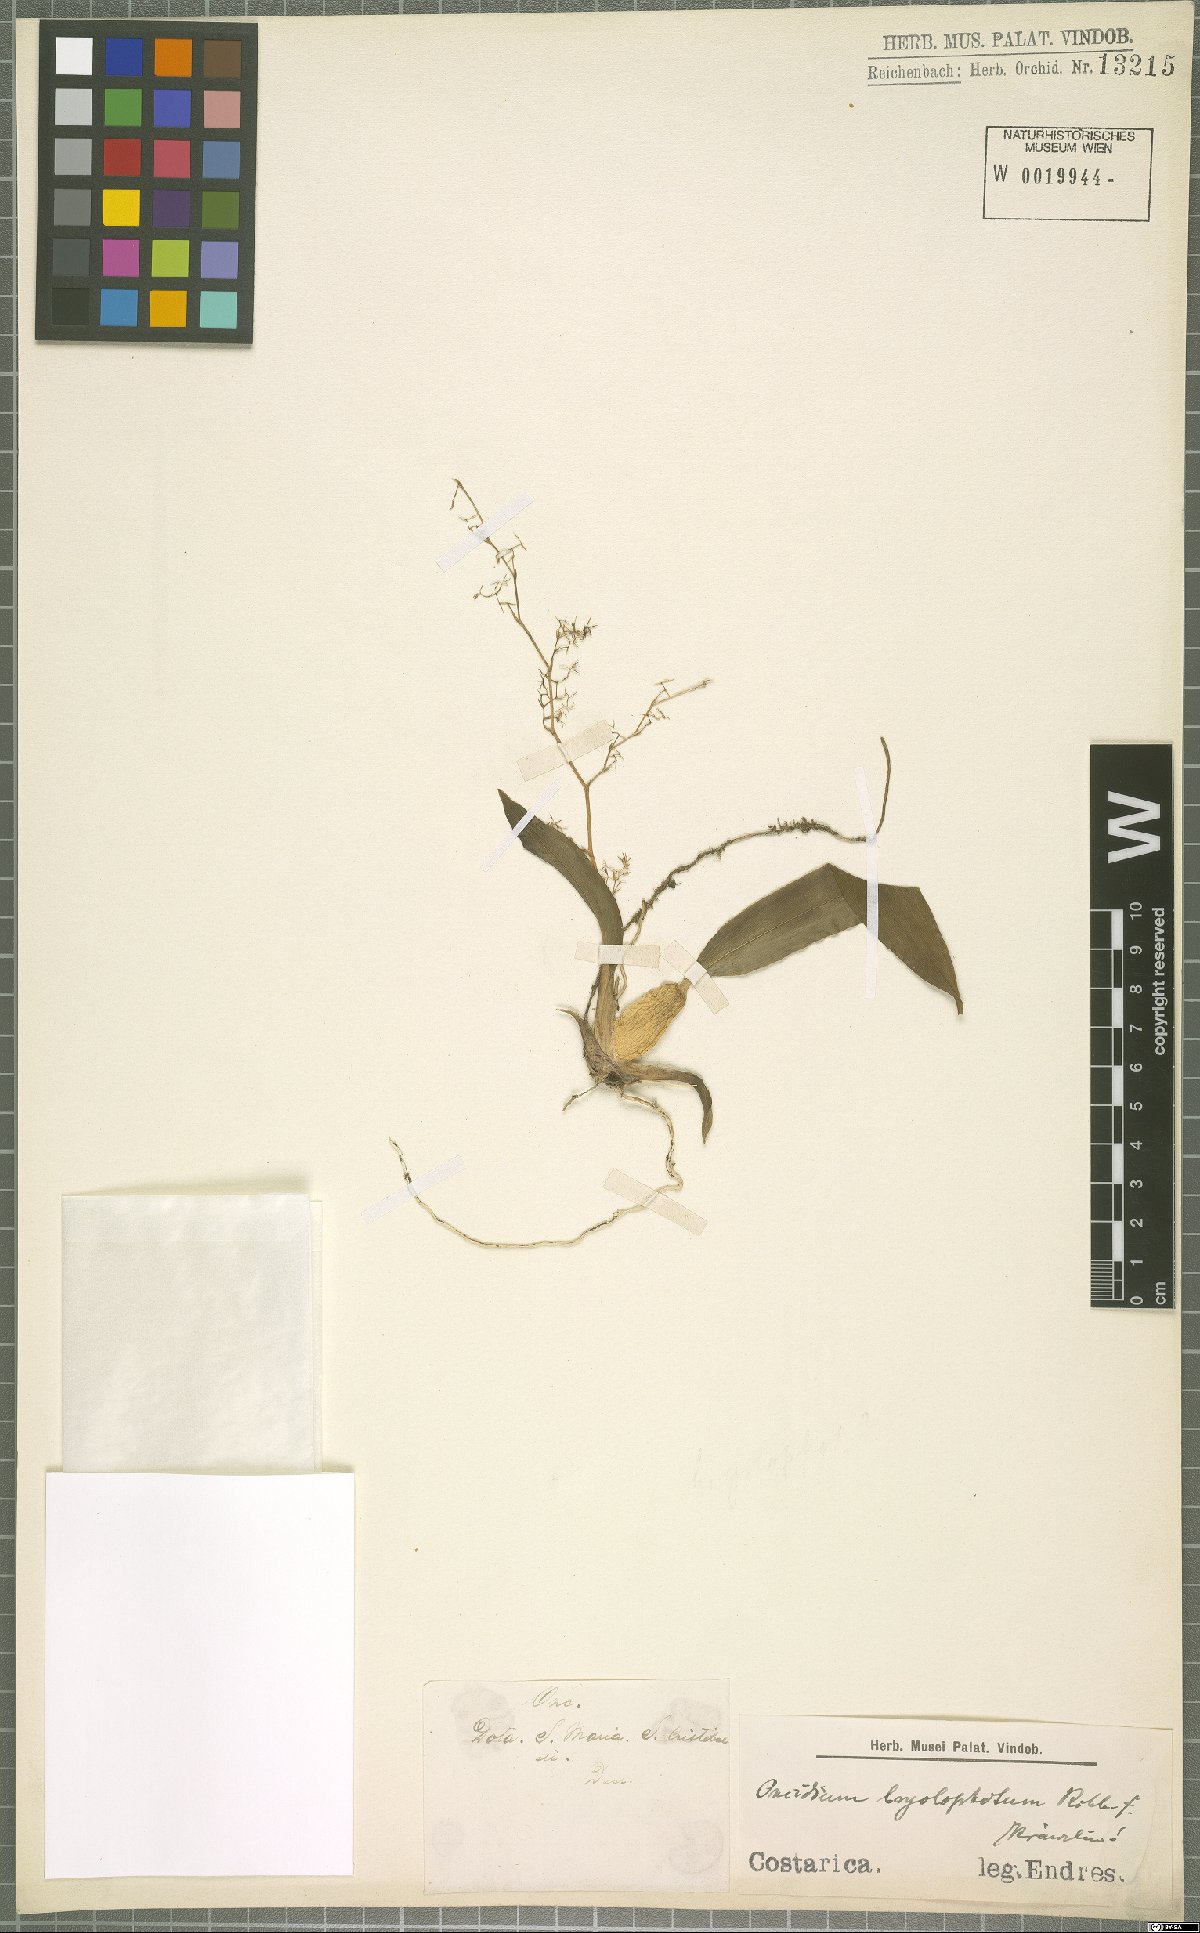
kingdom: Plantae
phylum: Tracheophyta
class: Liliopsida
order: Asparagales
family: Orchidaceae
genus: Oncidium
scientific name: Oncidium bryolophotum
